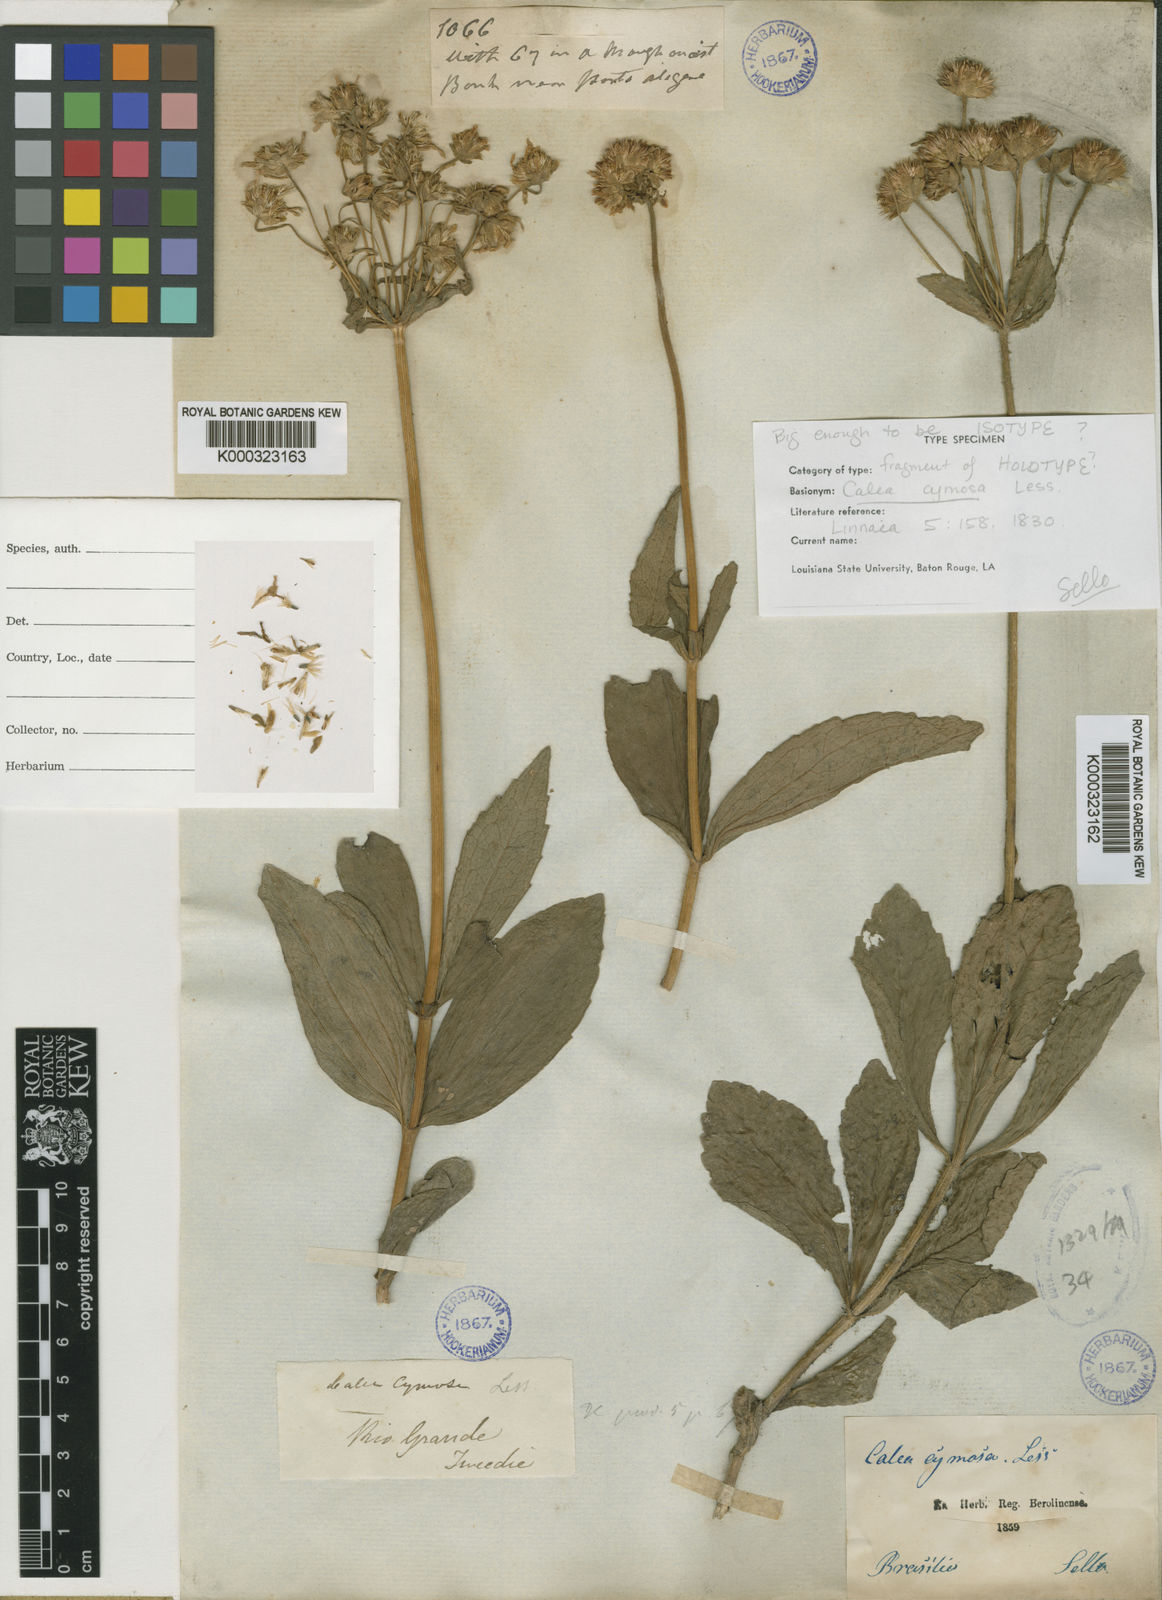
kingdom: Plantae
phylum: Tracheophyta
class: Magnoliopsida
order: Asterales
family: Asteraceae
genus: Calea
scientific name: Calea cymosa
